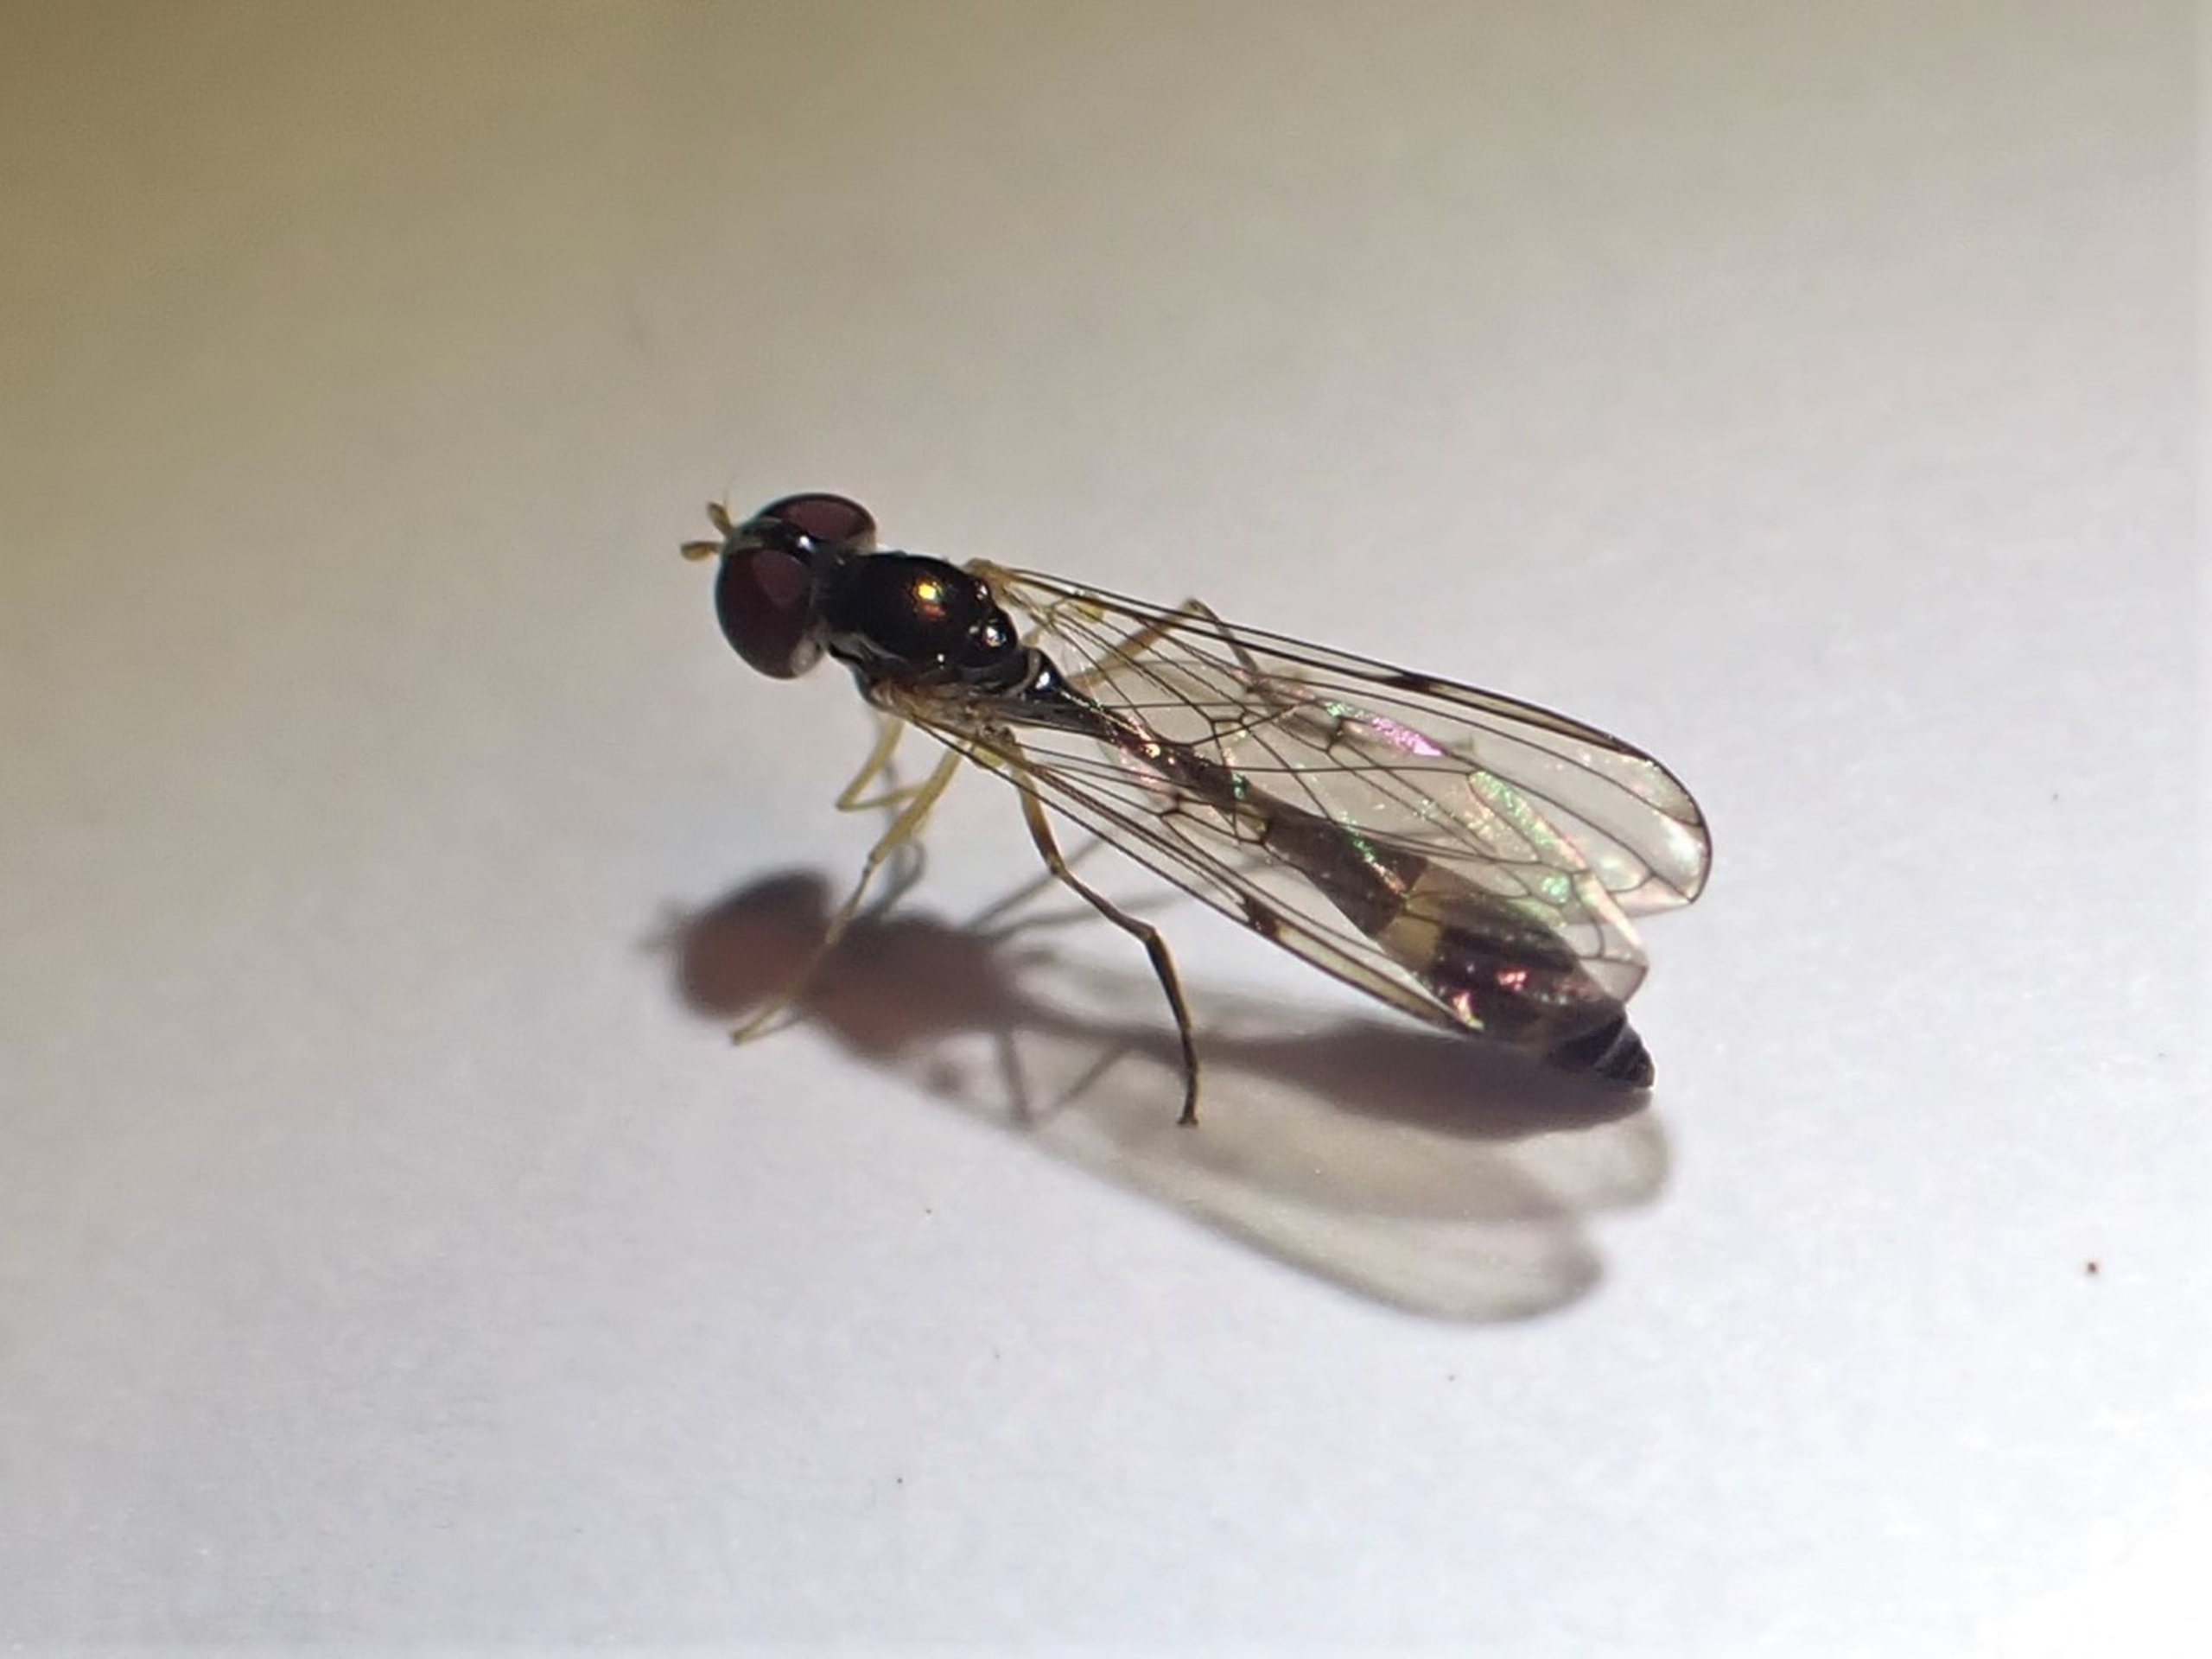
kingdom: Animalia
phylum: Arthropoda
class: Insecta
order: Diptera
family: Syrphidae
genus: Baccha
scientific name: Baccha elongata
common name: Mat spydsvirreflue
